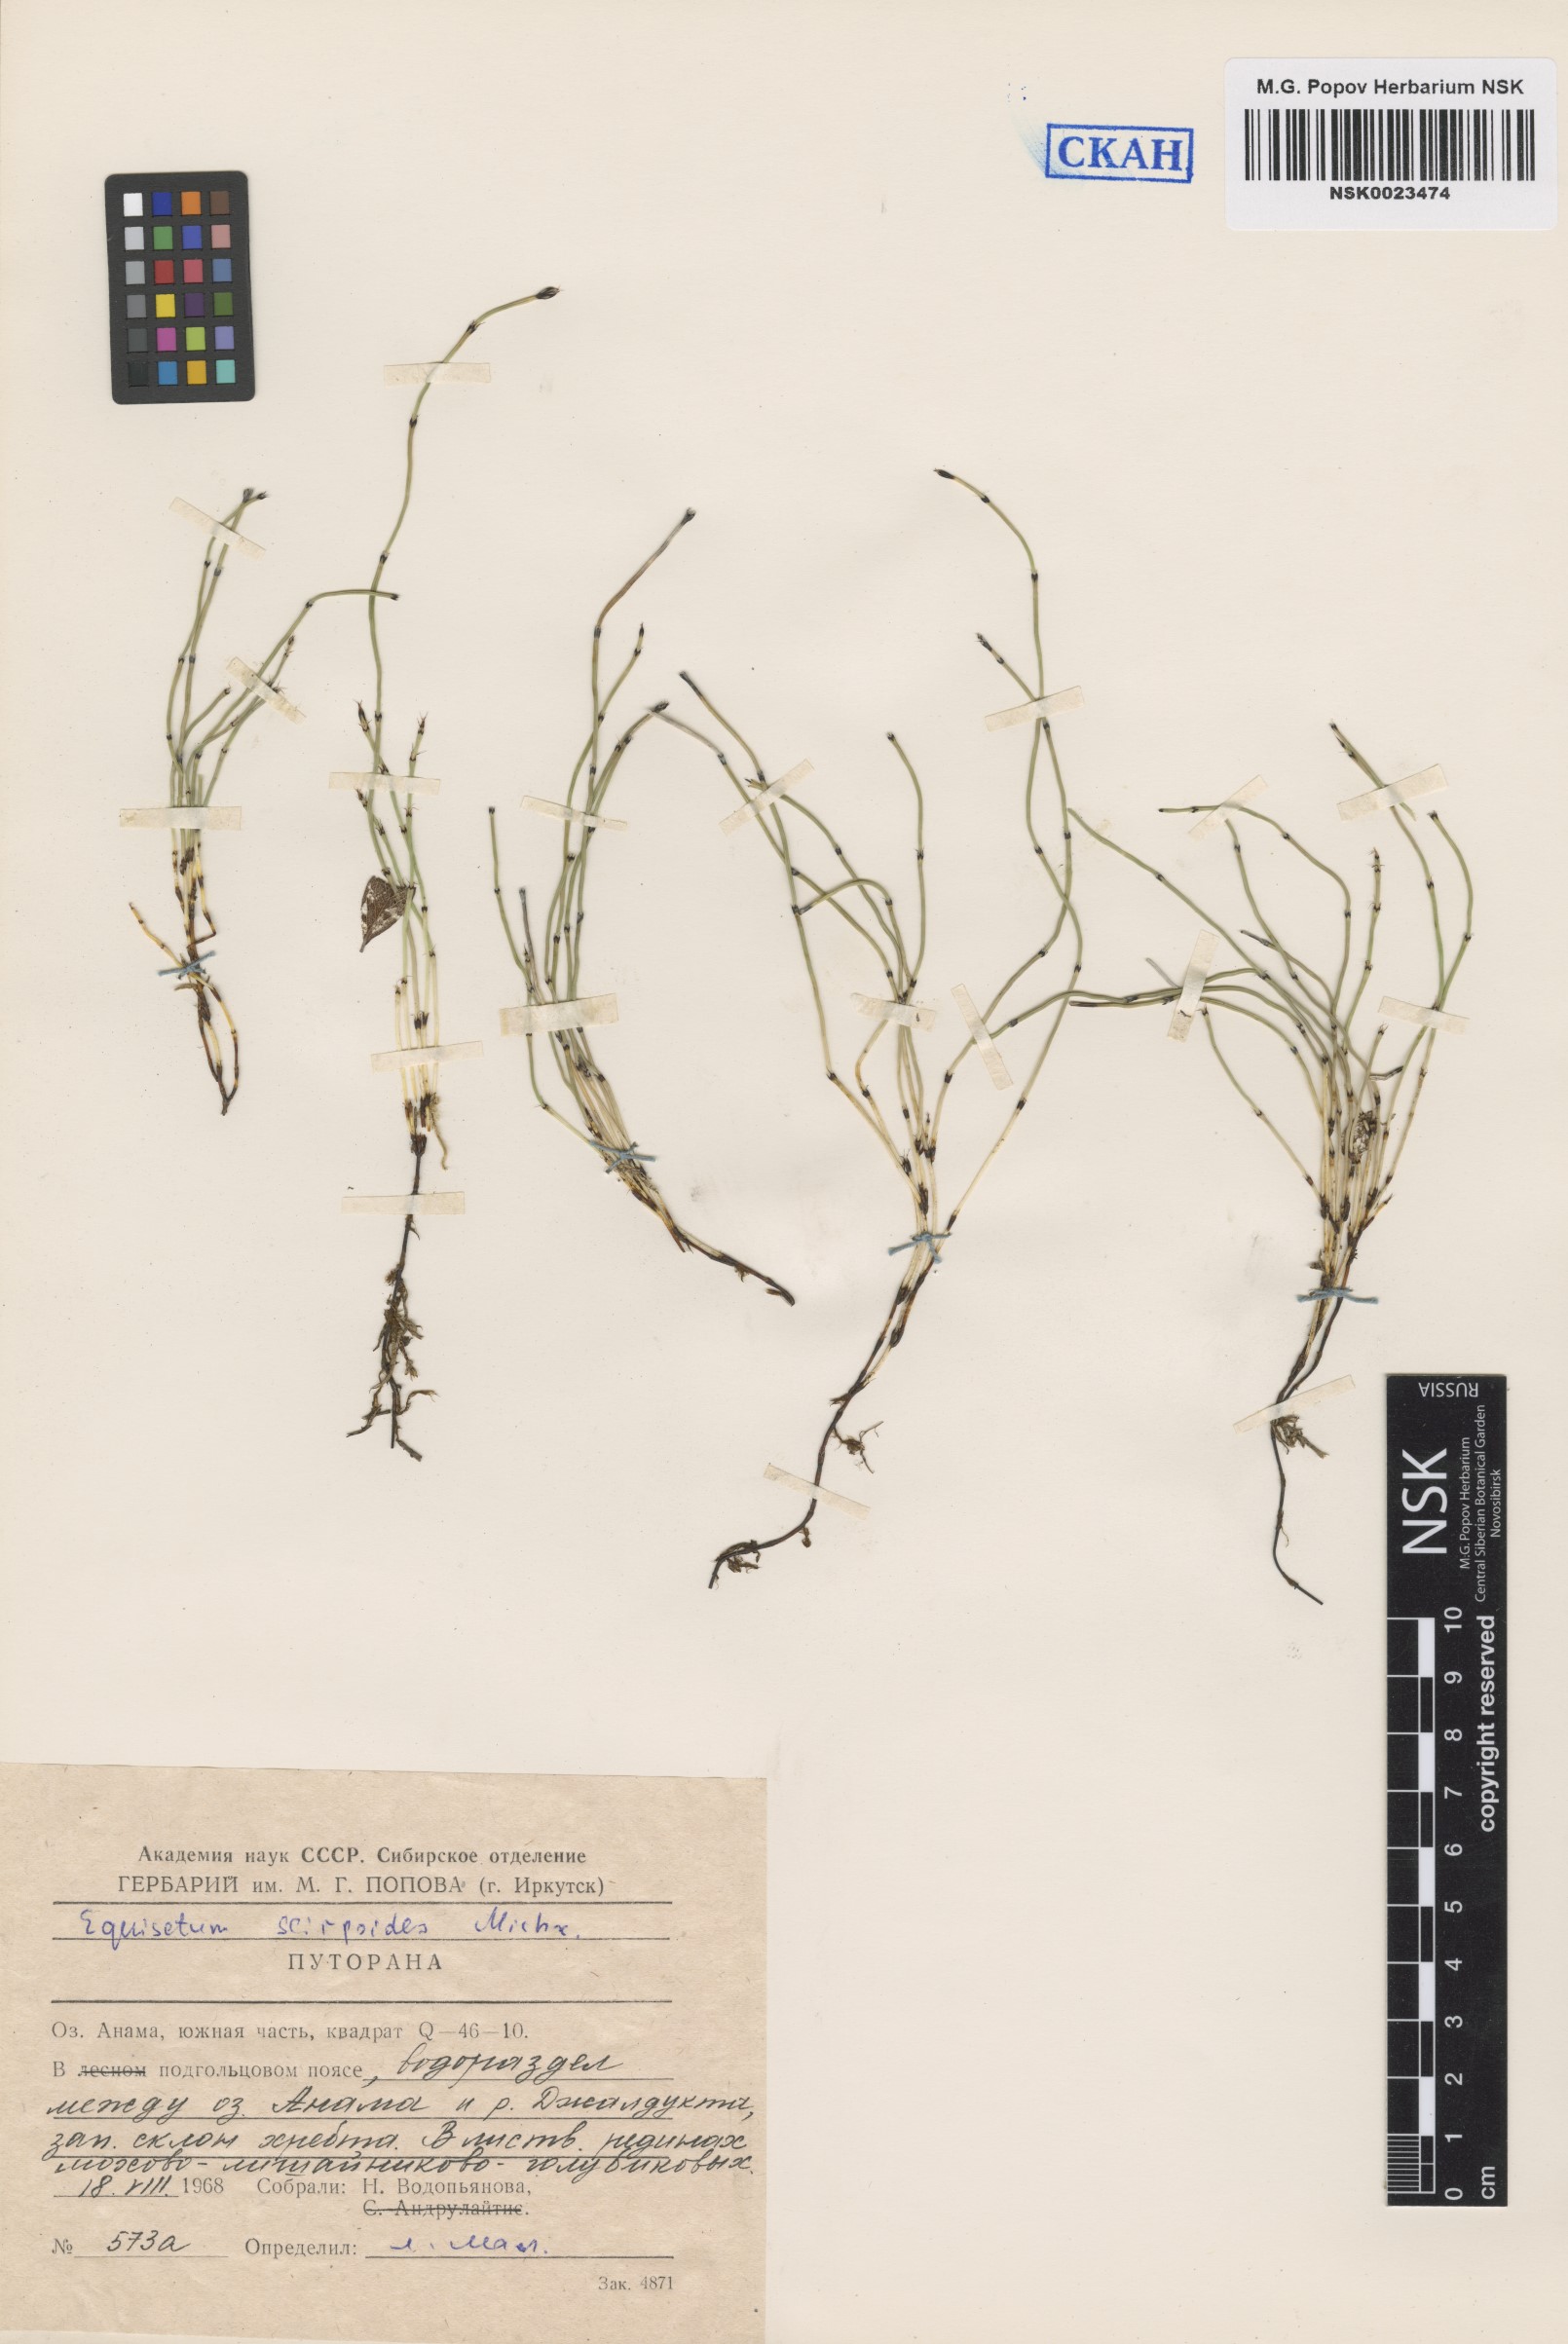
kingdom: Plantae
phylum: Tracheophyta
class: Polypodiopsida
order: Equisetales
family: Equisetaceae
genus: Equisetum
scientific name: Equisetum scirpoides
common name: Delicate horsetail
